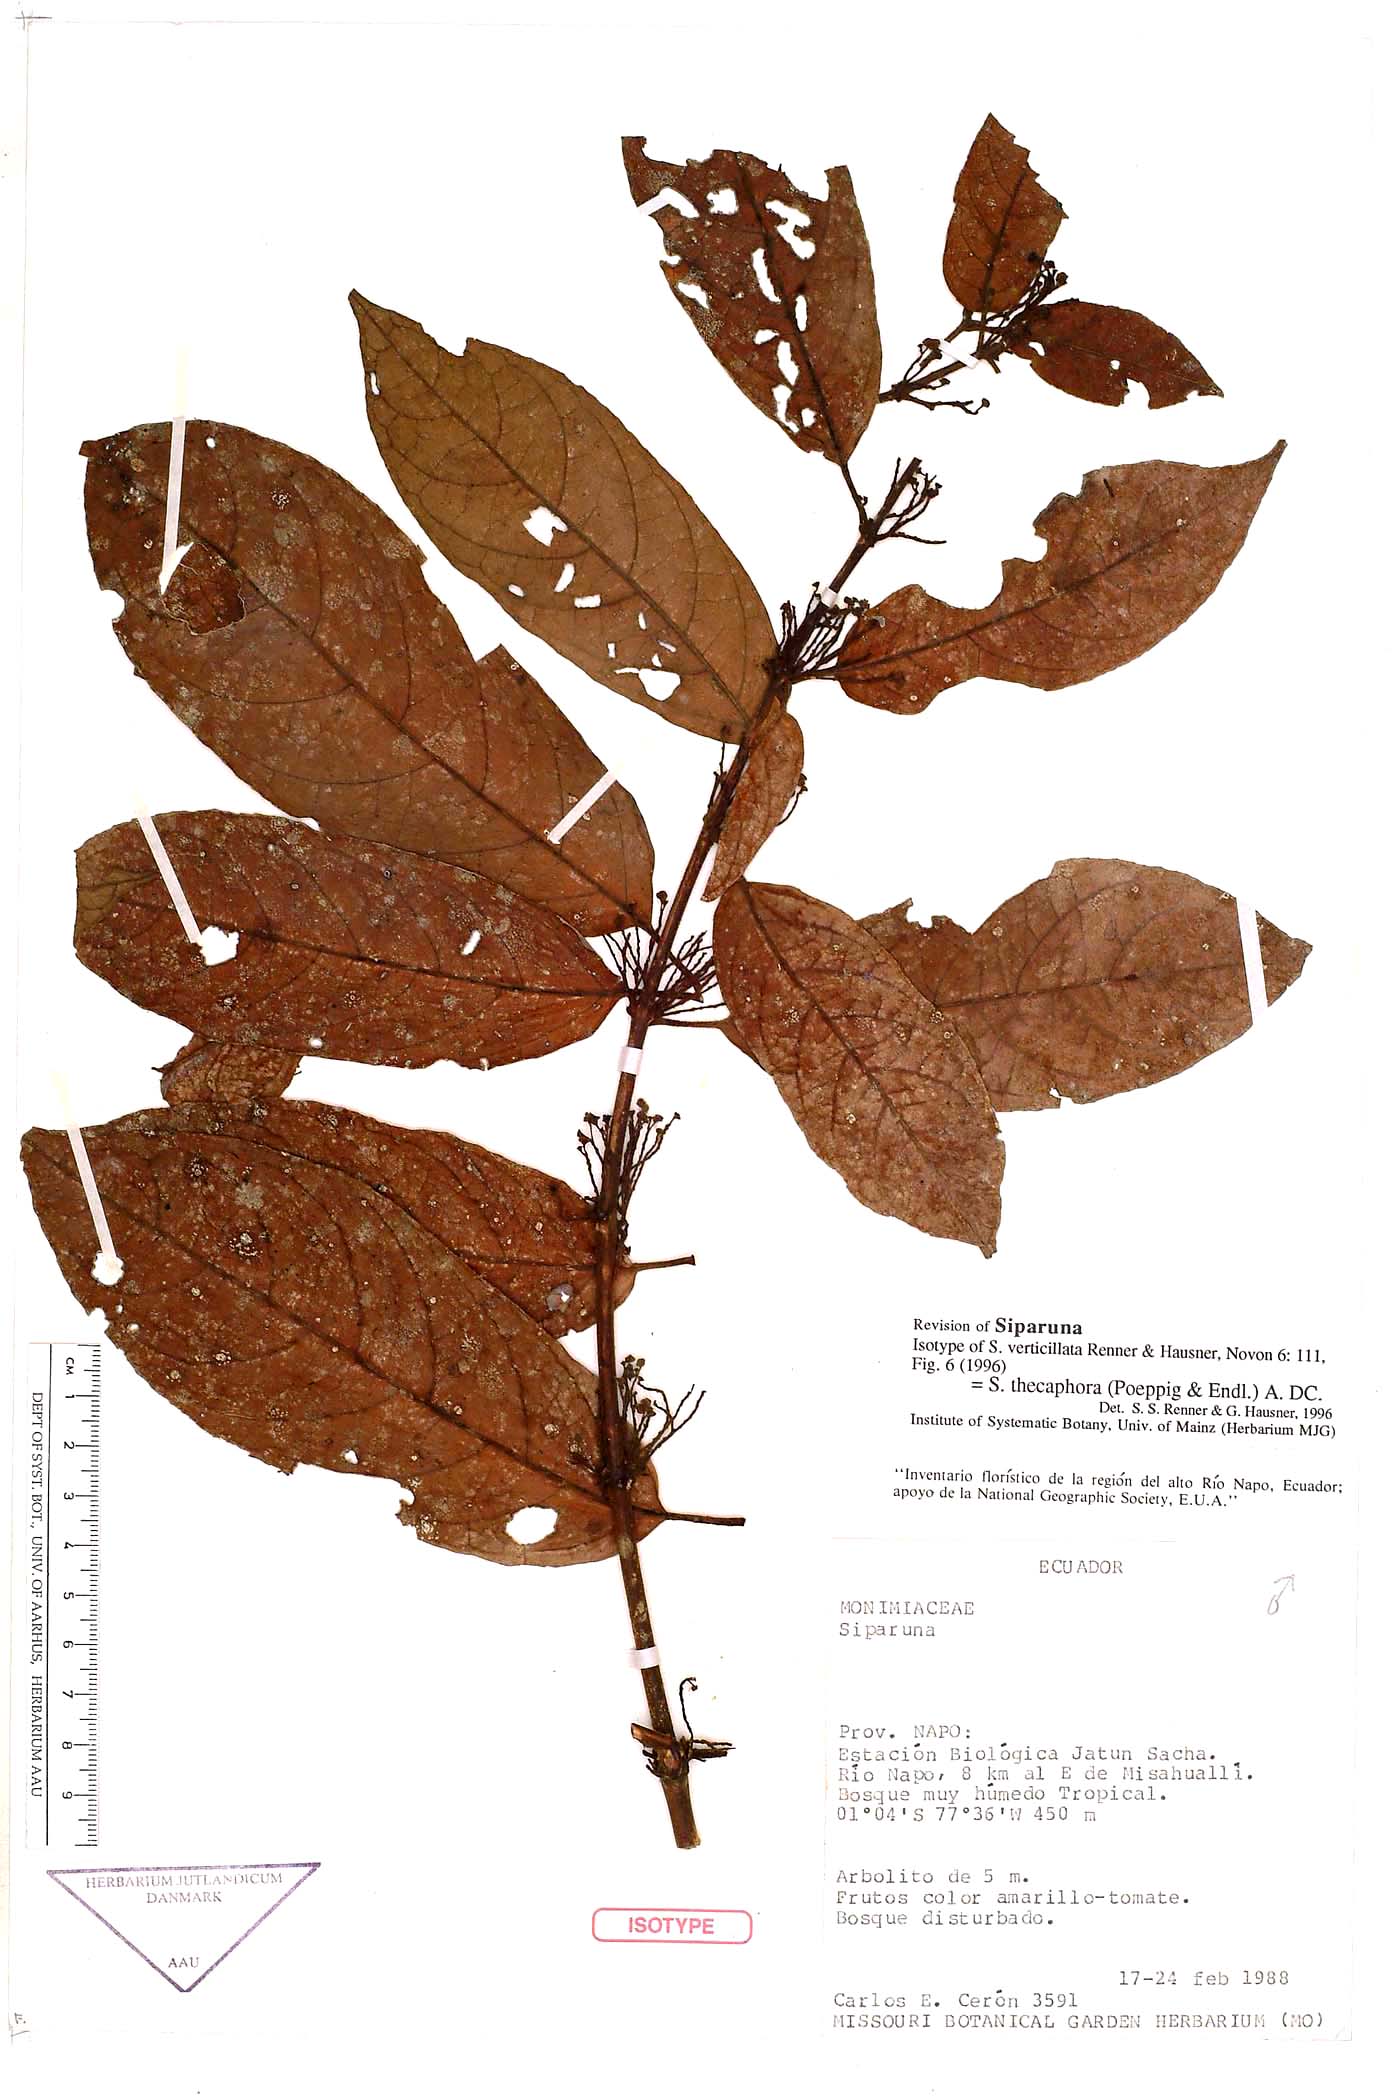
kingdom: Plantae
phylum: Tracheophyta
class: Magnoliopsida
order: Laurales
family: Siparunaceae
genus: Siparuna
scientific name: Siparuna thecaphora
